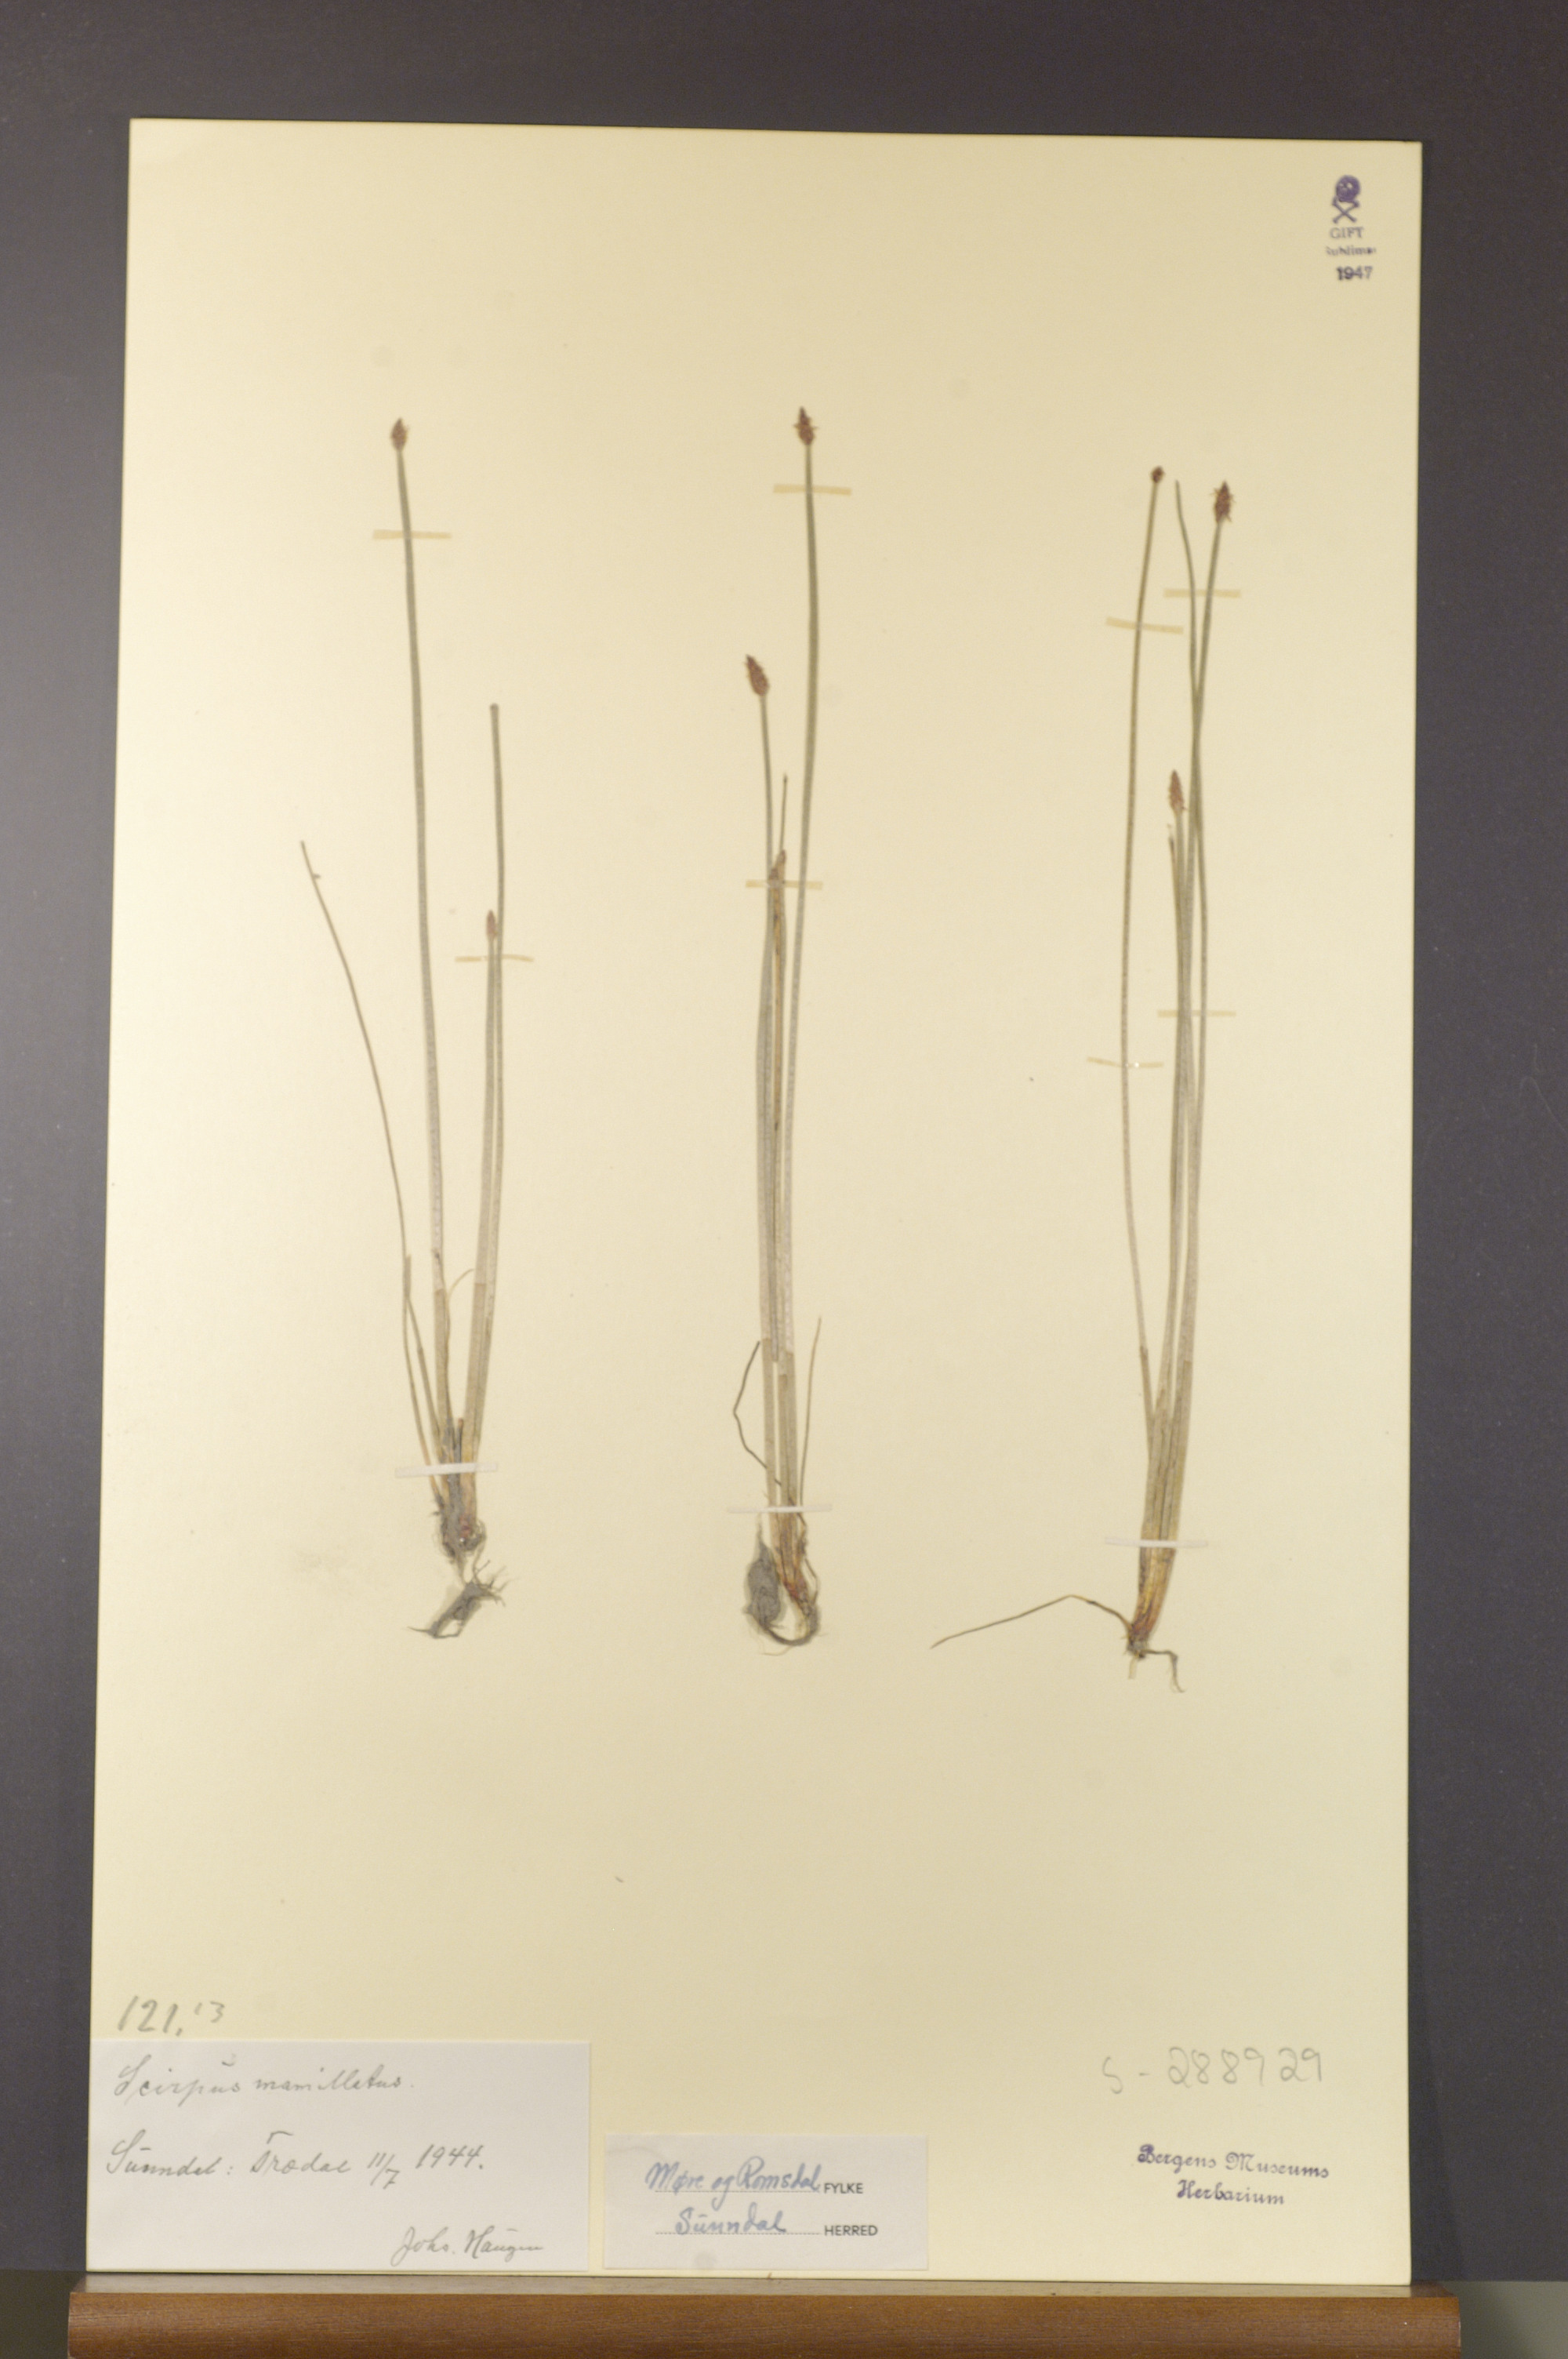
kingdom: Plantae
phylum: Tracheophyta
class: Liliopsida
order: Poales
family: Cyperaceae
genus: Eleocharis
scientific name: Eleocharis mamillata
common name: Northern spike-rush
